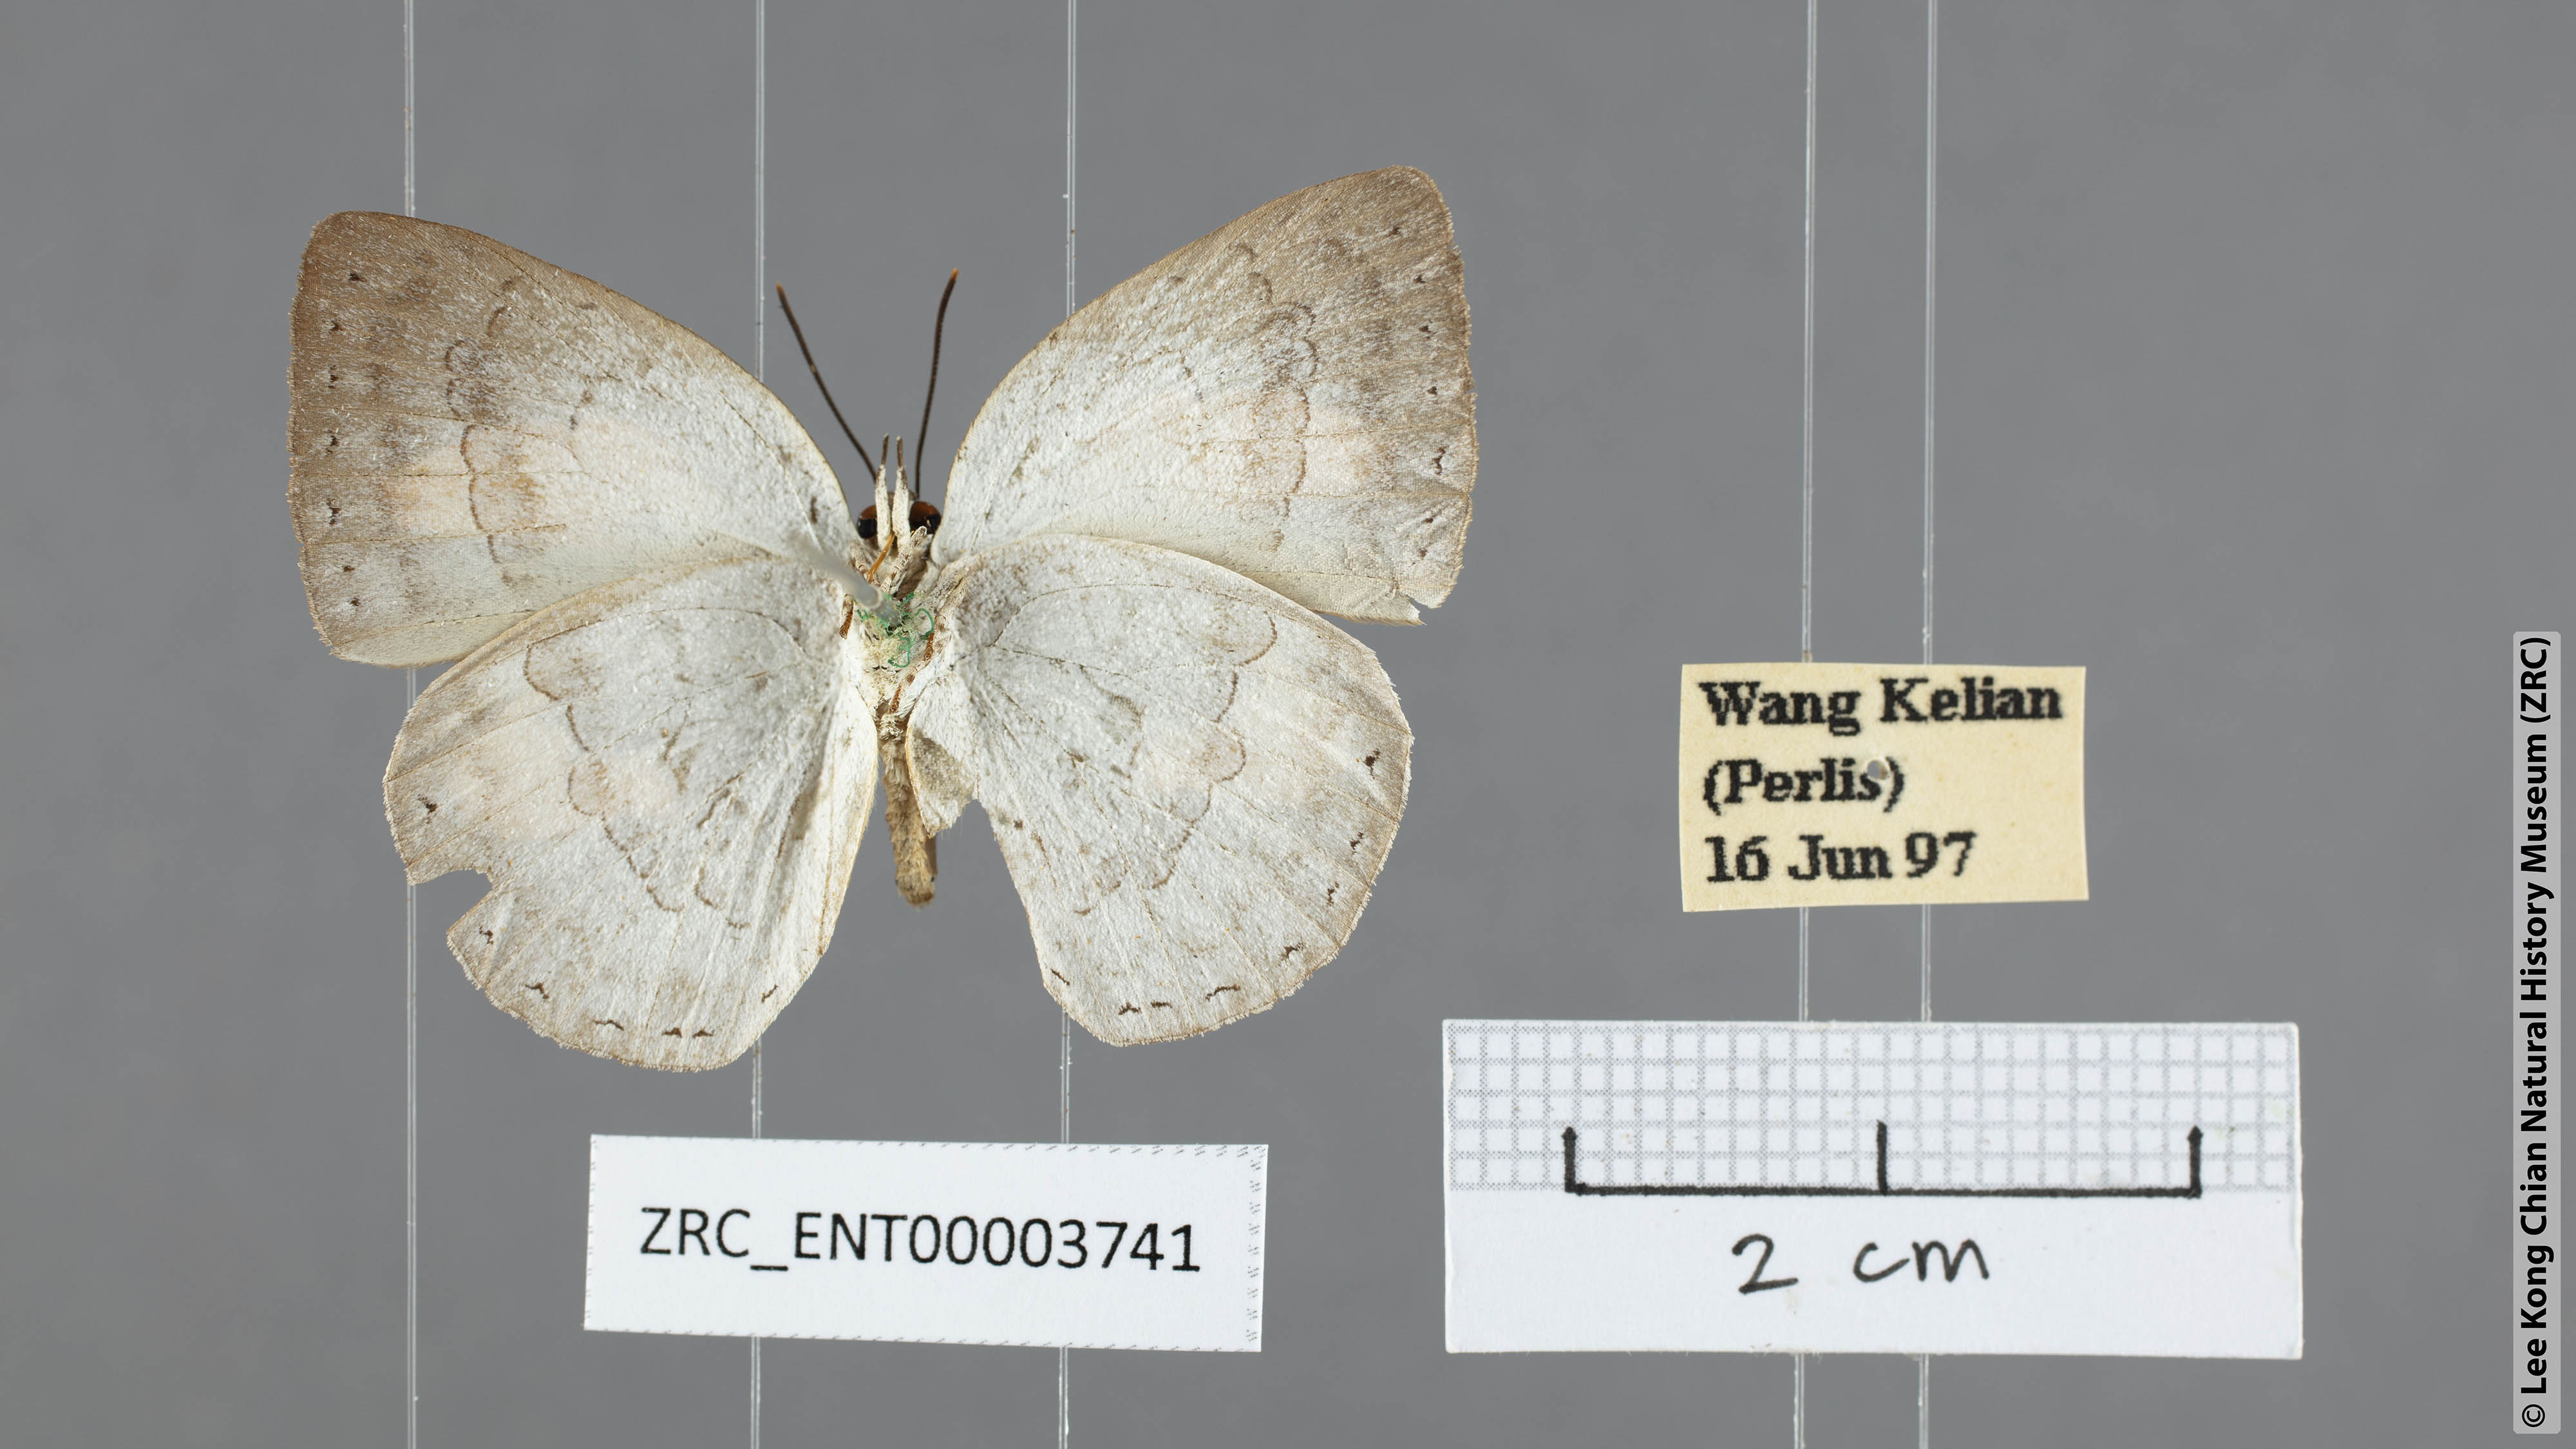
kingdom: Animalia
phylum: Arthropoda
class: Insecta
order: Lepidoptera
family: Lycaenidae
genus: Curetis
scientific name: Curetis regula
